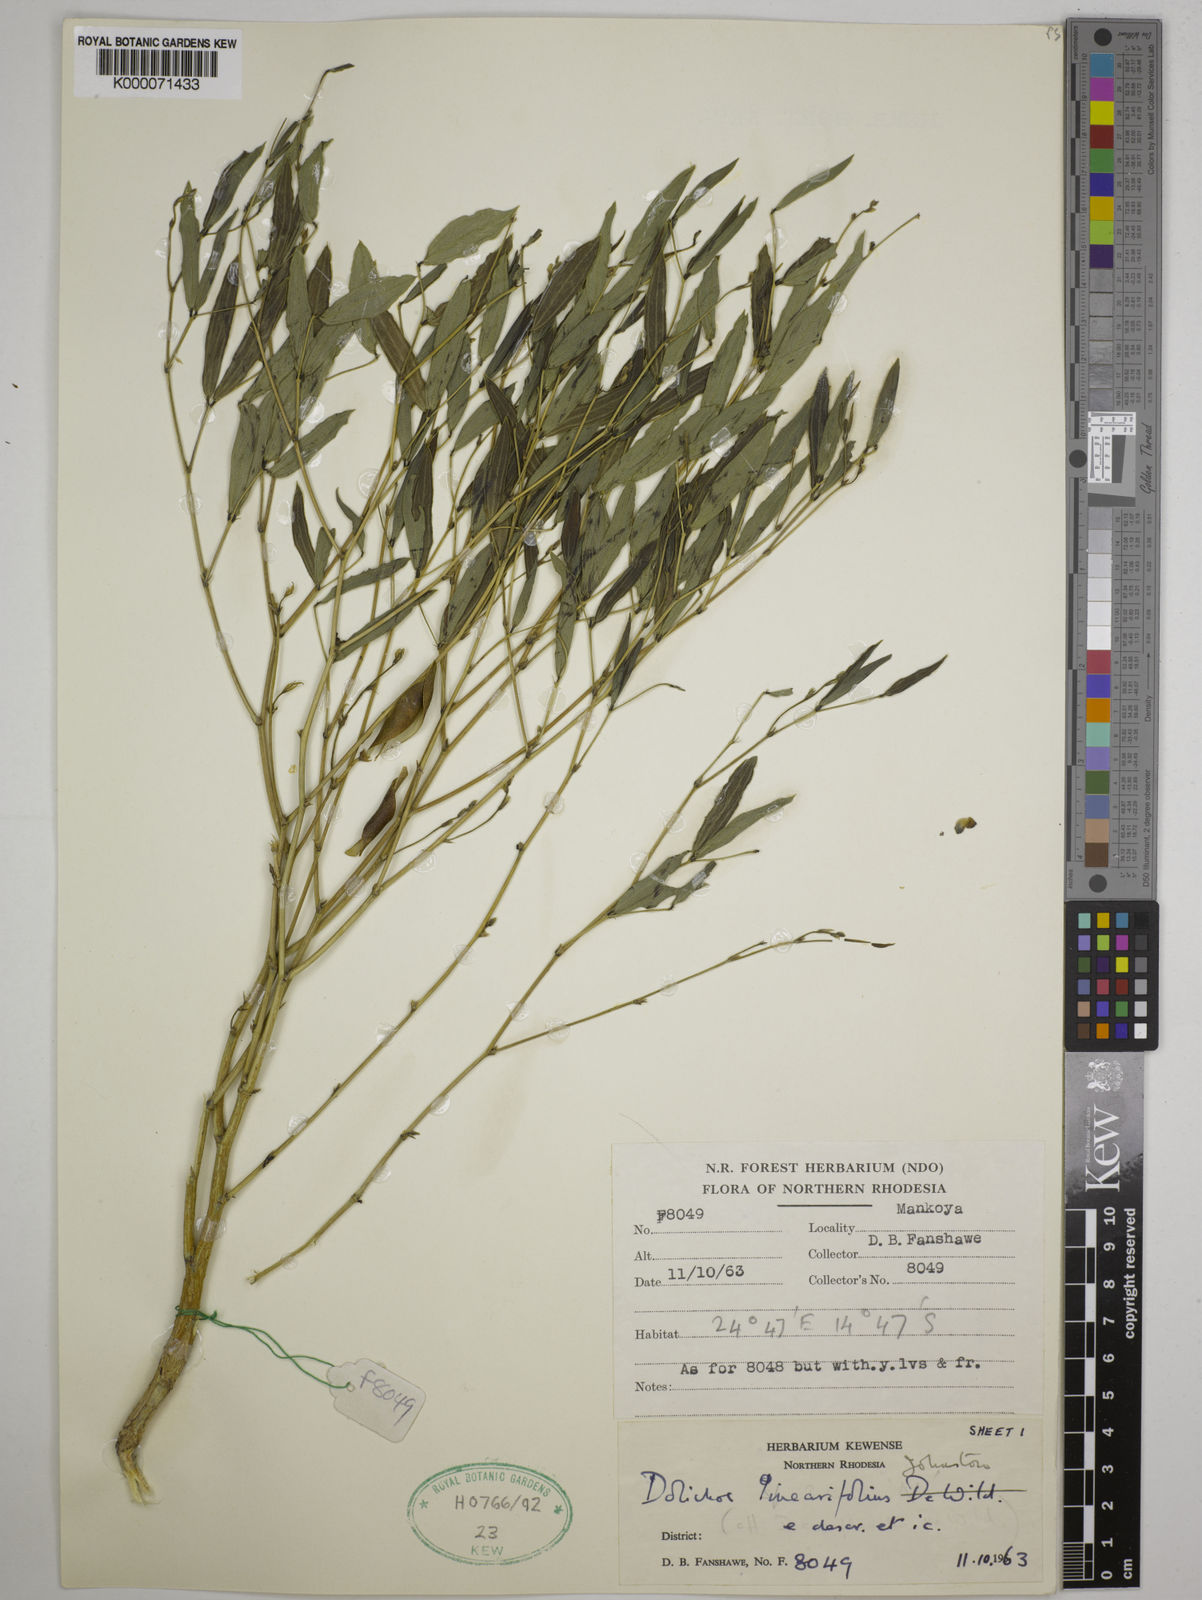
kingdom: Plantae
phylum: Tracheophyta
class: Magnoliopsida
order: Fabales
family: Fabaceae
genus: Dolichos
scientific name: Dolichos linearifolius
